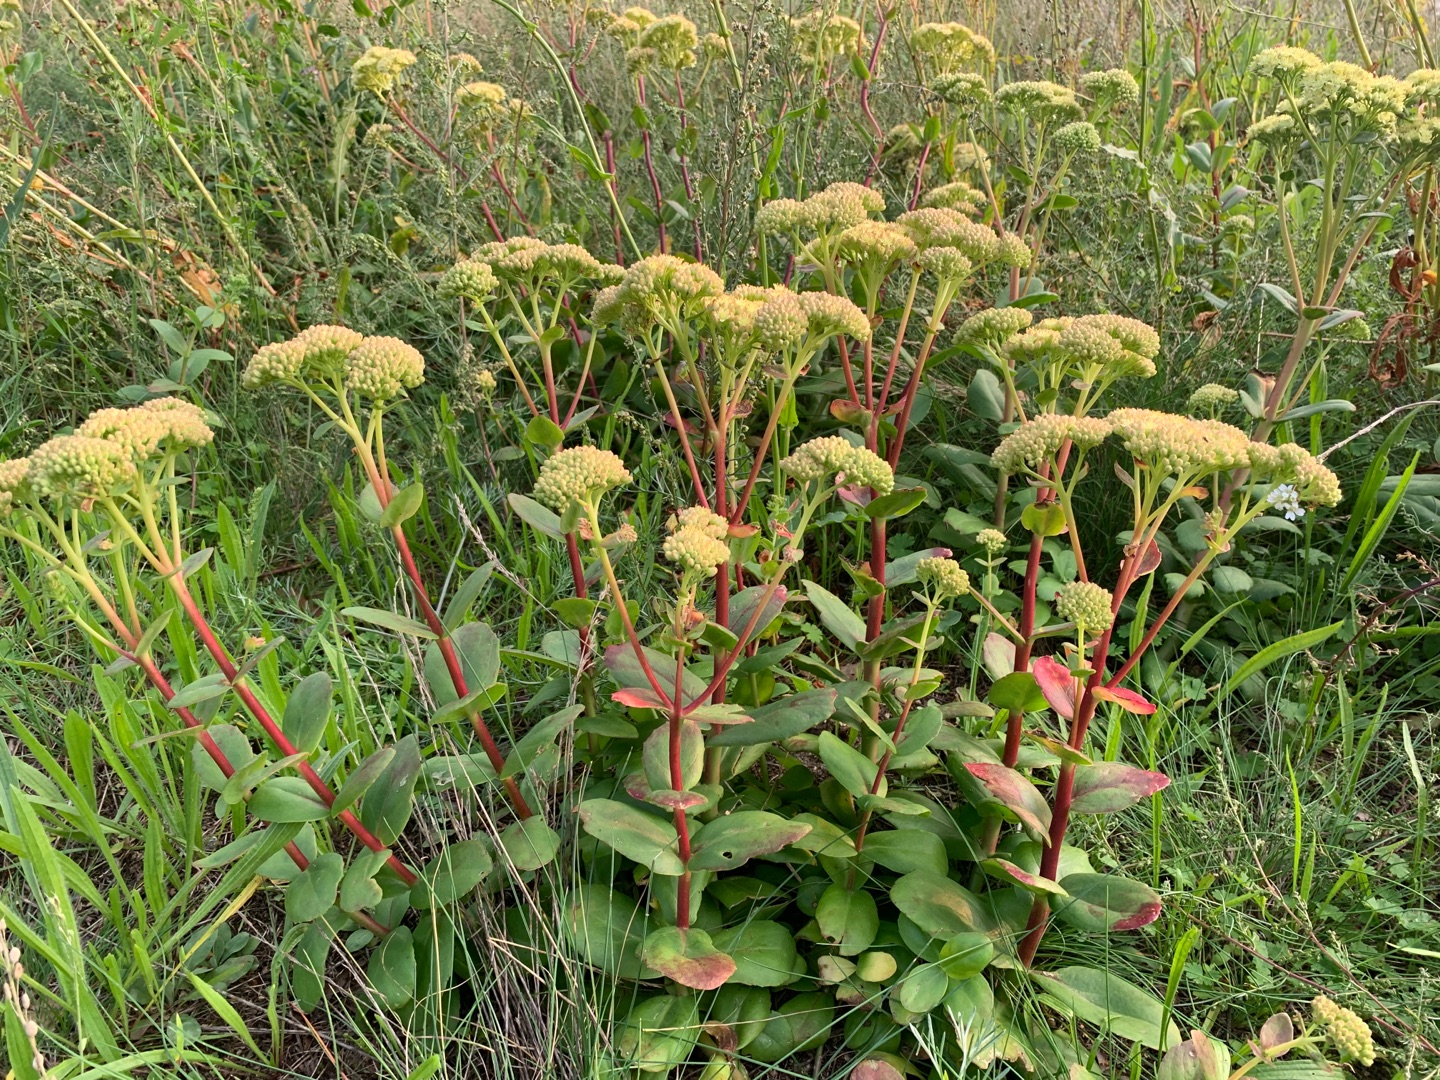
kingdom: Plantae
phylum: Tracheophyta
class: Magnoliopsida
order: Saxifragales
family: Crassulaceae
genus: Hylotelephium
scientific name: Hylotelephium telephium
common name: Sankthansurt
